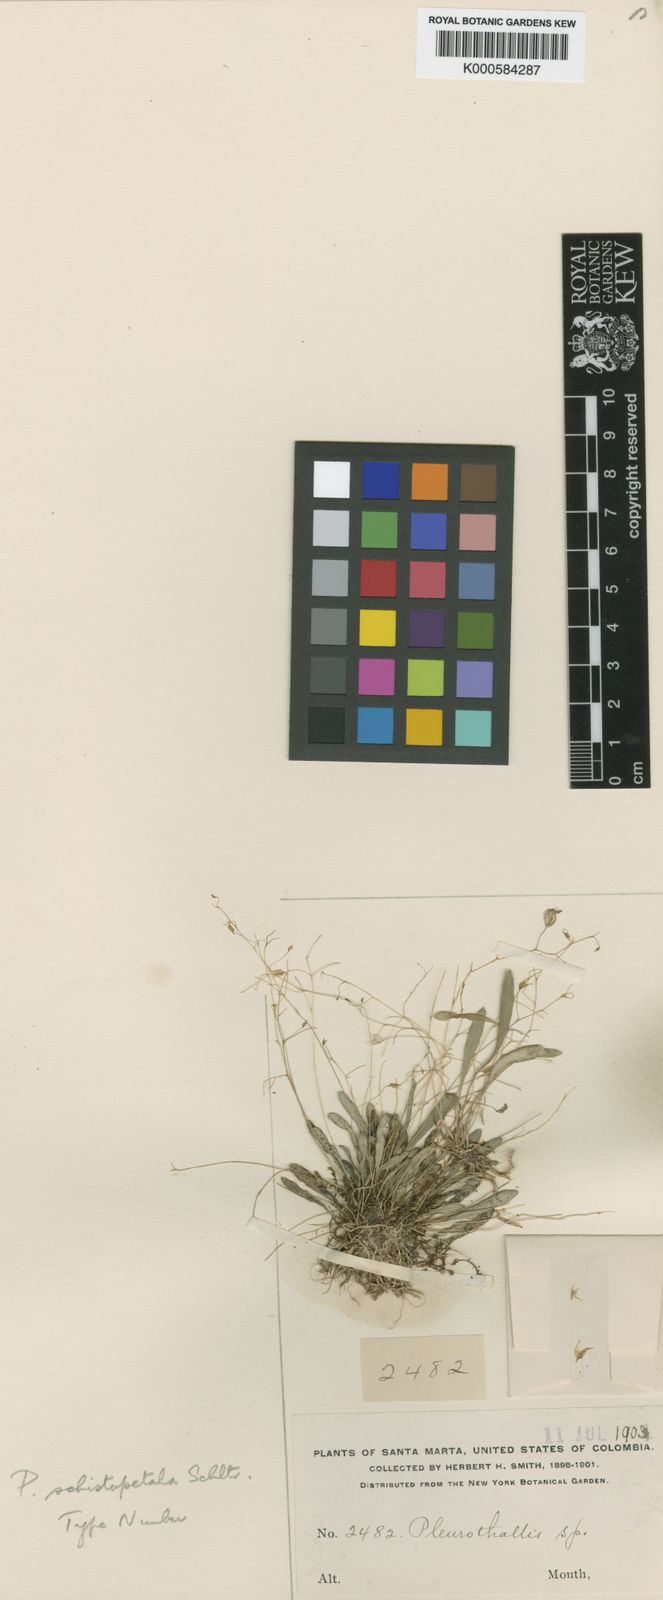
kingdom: Plantae
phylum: Tracheophyta
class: Liliopsida
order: Asparagales
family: Orchidaceae
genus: Muscarella
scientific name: Muscarella zephyrina
